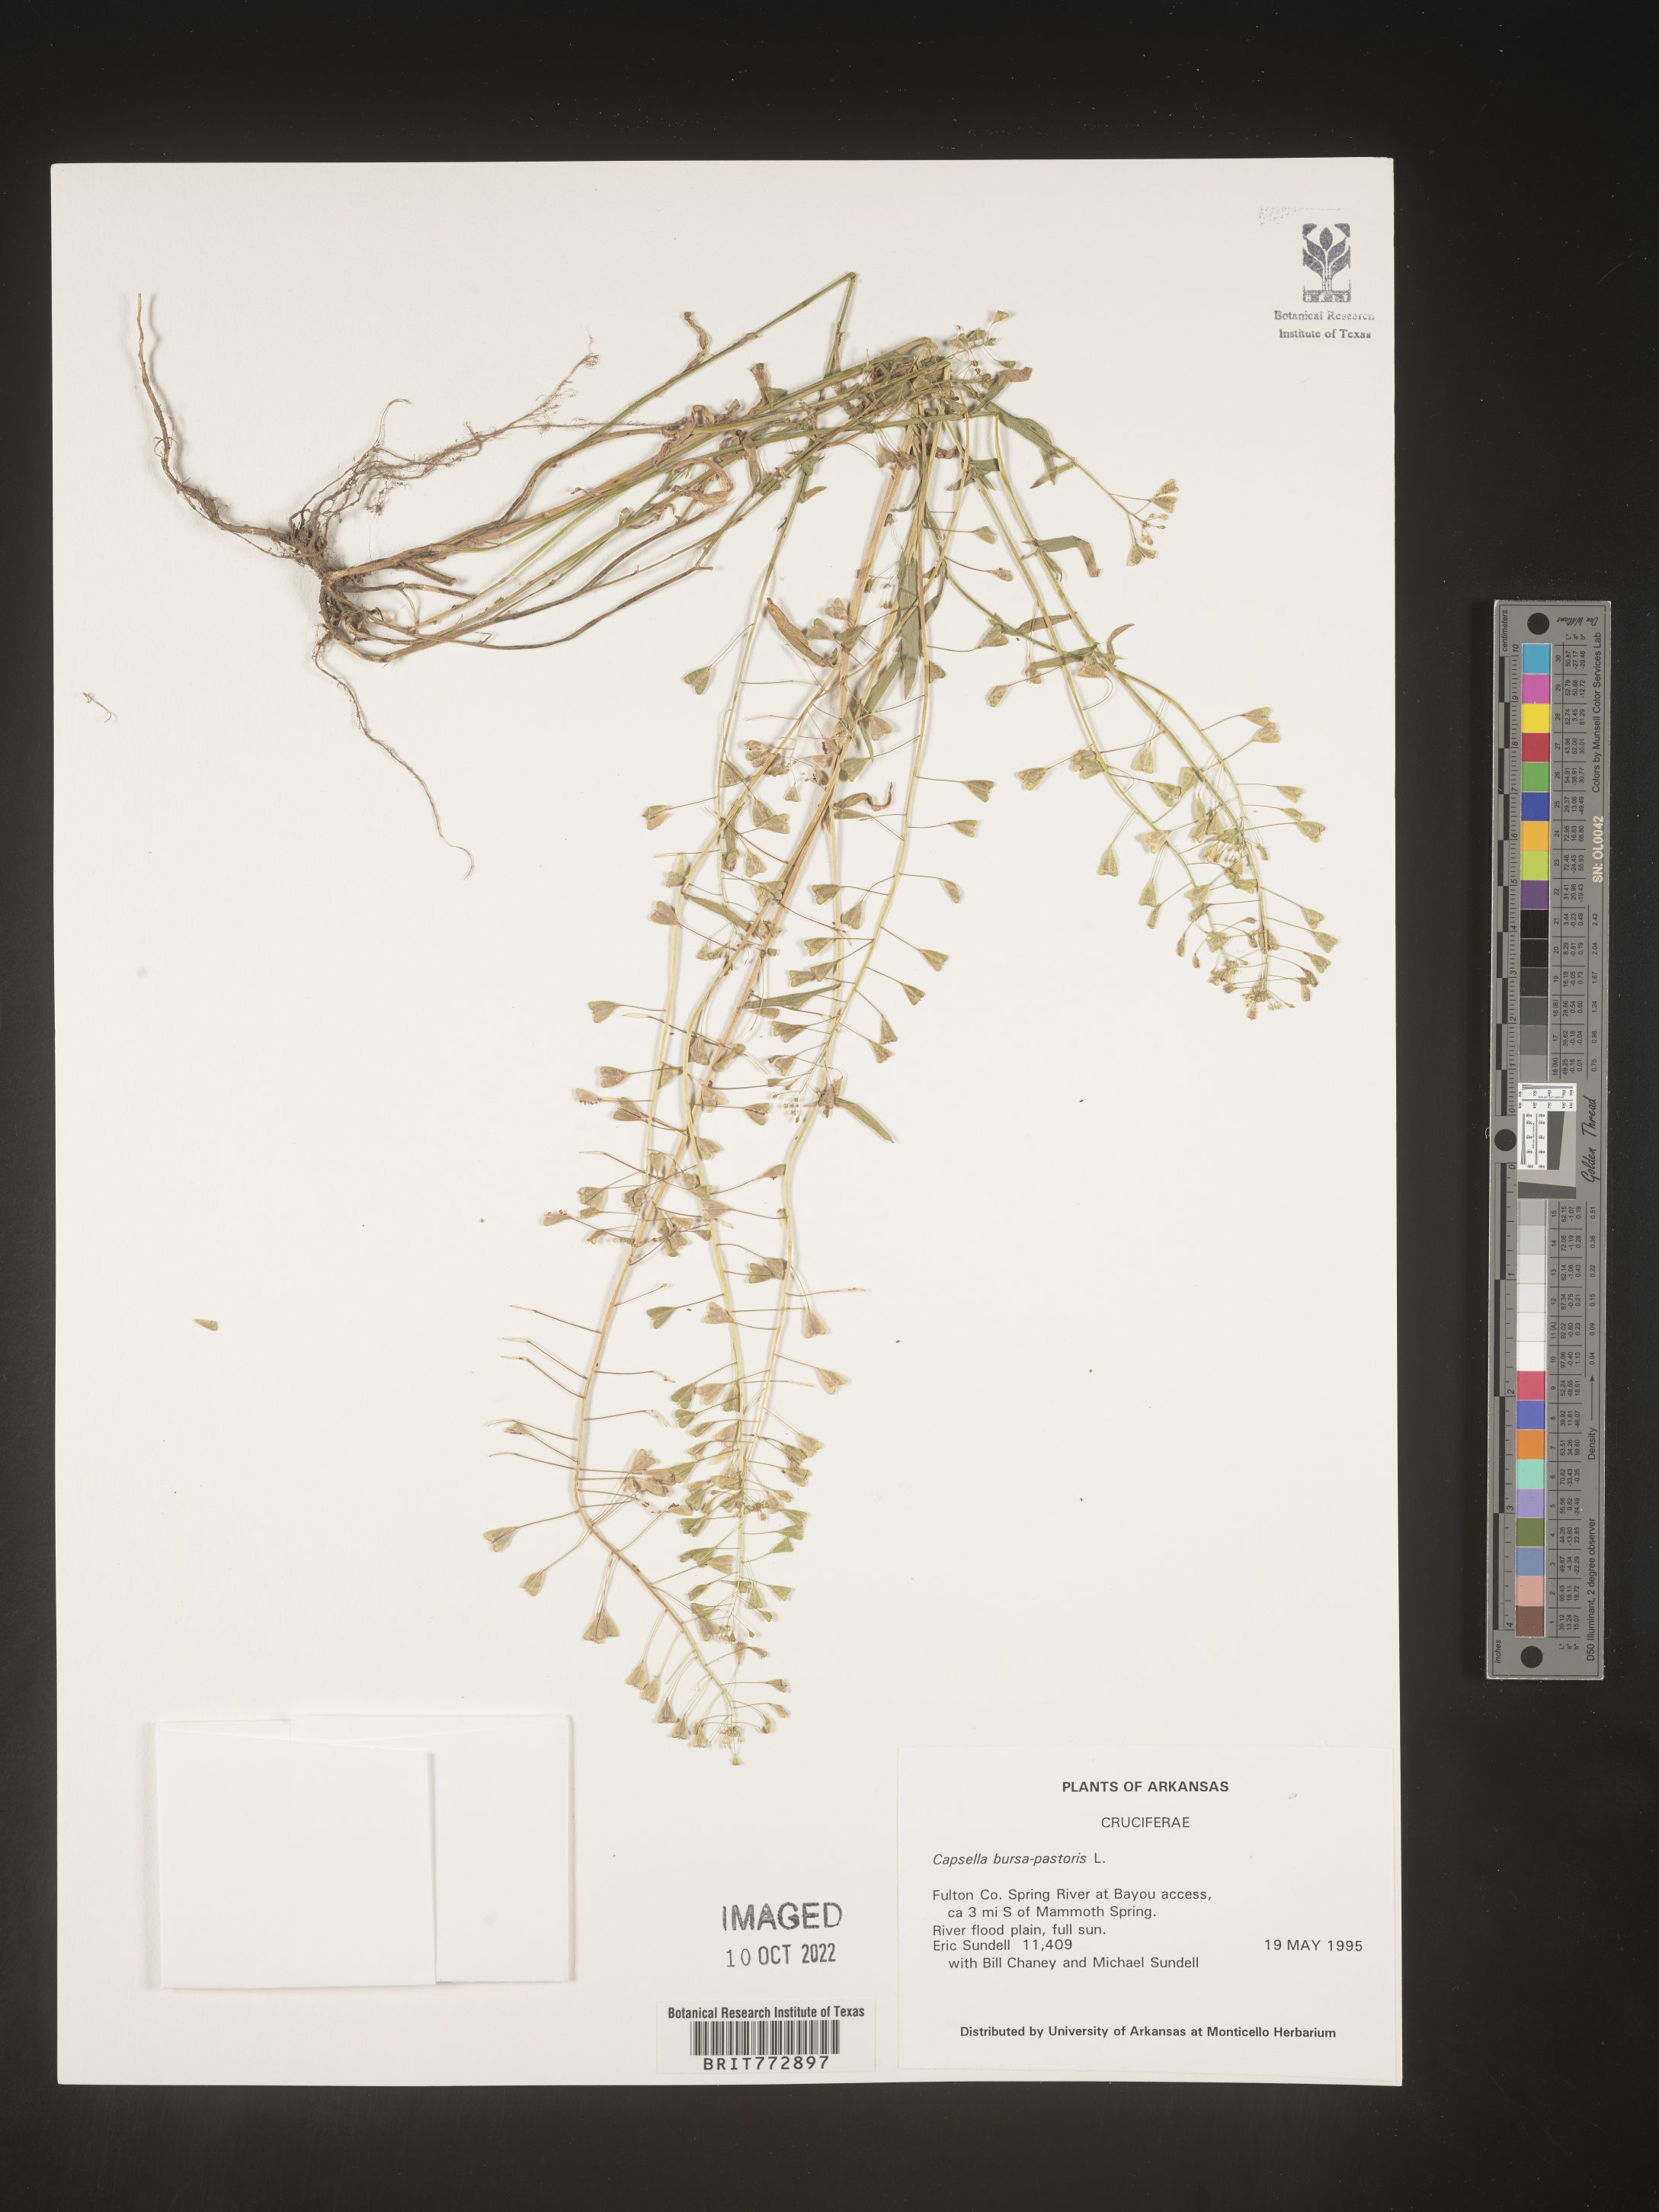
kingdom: Plantae
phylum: Tracheophyta
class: Magnoliopsida
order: Brassicales
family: Brassicaceae
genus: Capsella
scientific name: Capsella bursa-pastoris
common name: Shepherd's purse
